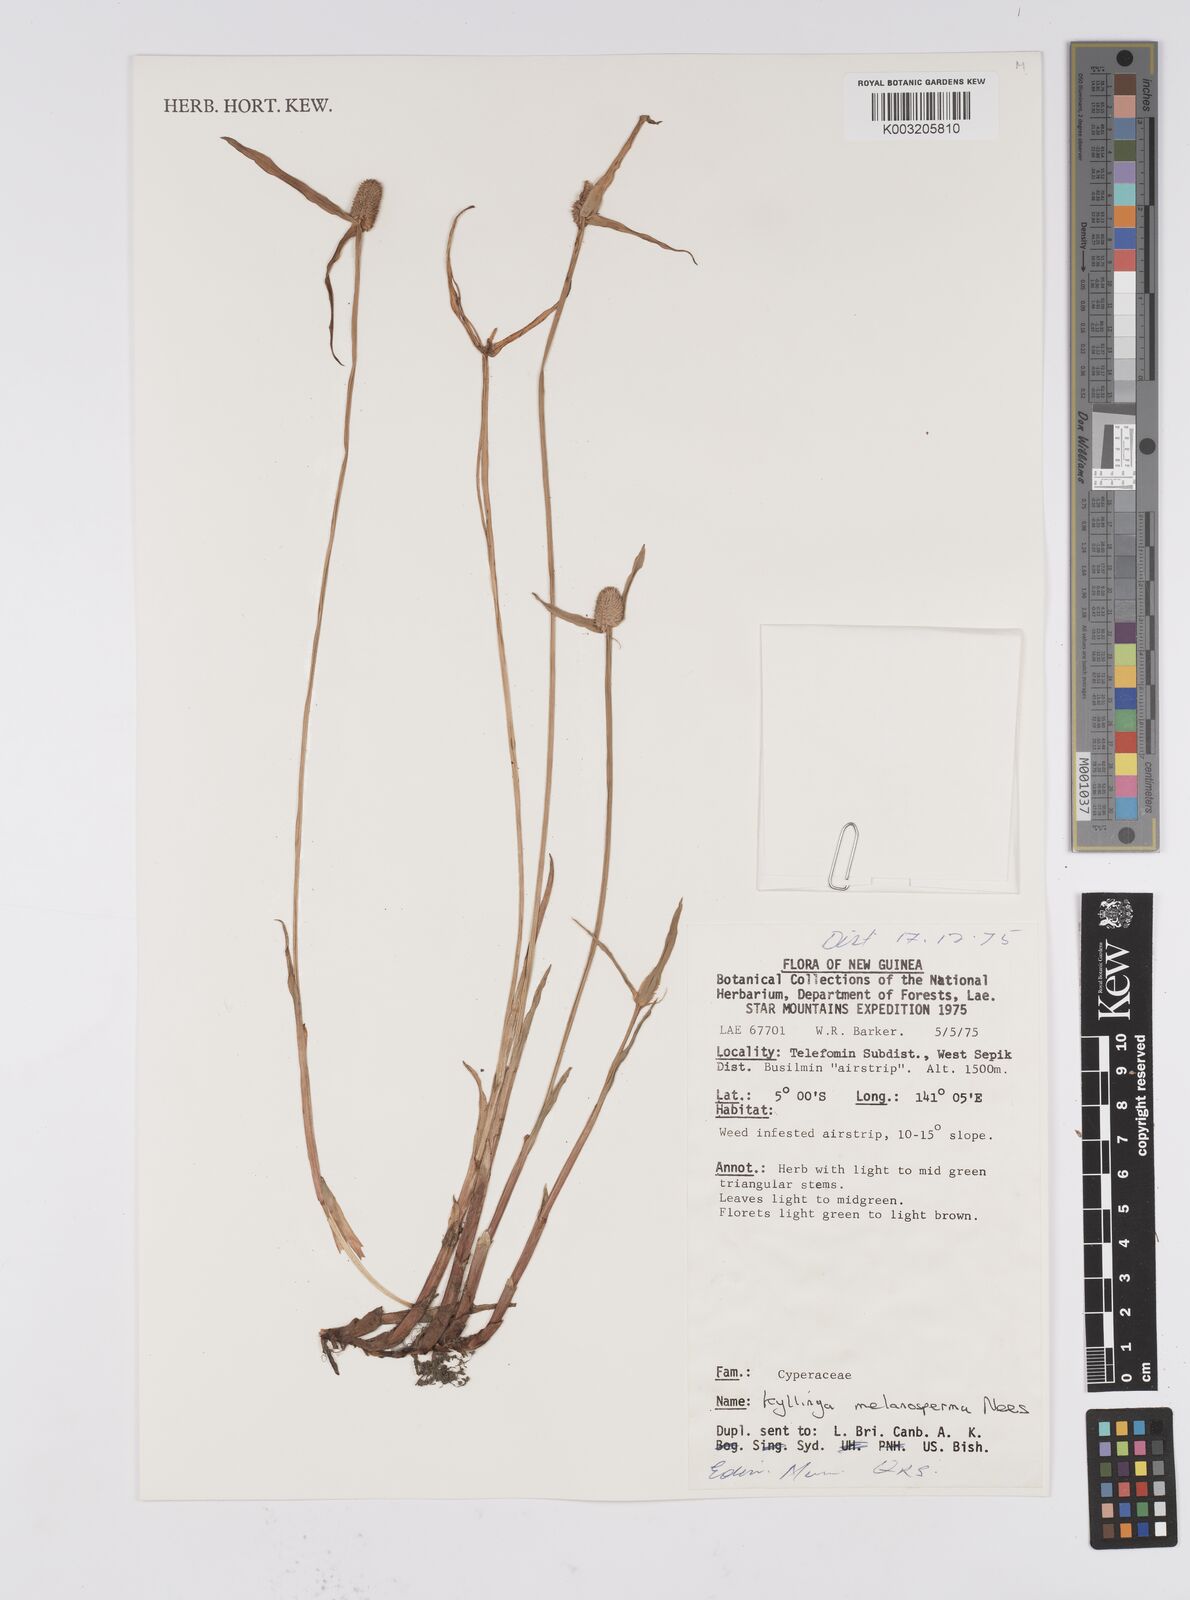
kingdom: Plantae
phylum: Tracheophyta
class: Liliopsida
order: Poales
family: Cyperaceae
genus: Cyperus
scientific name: Cyperus melanospermus
